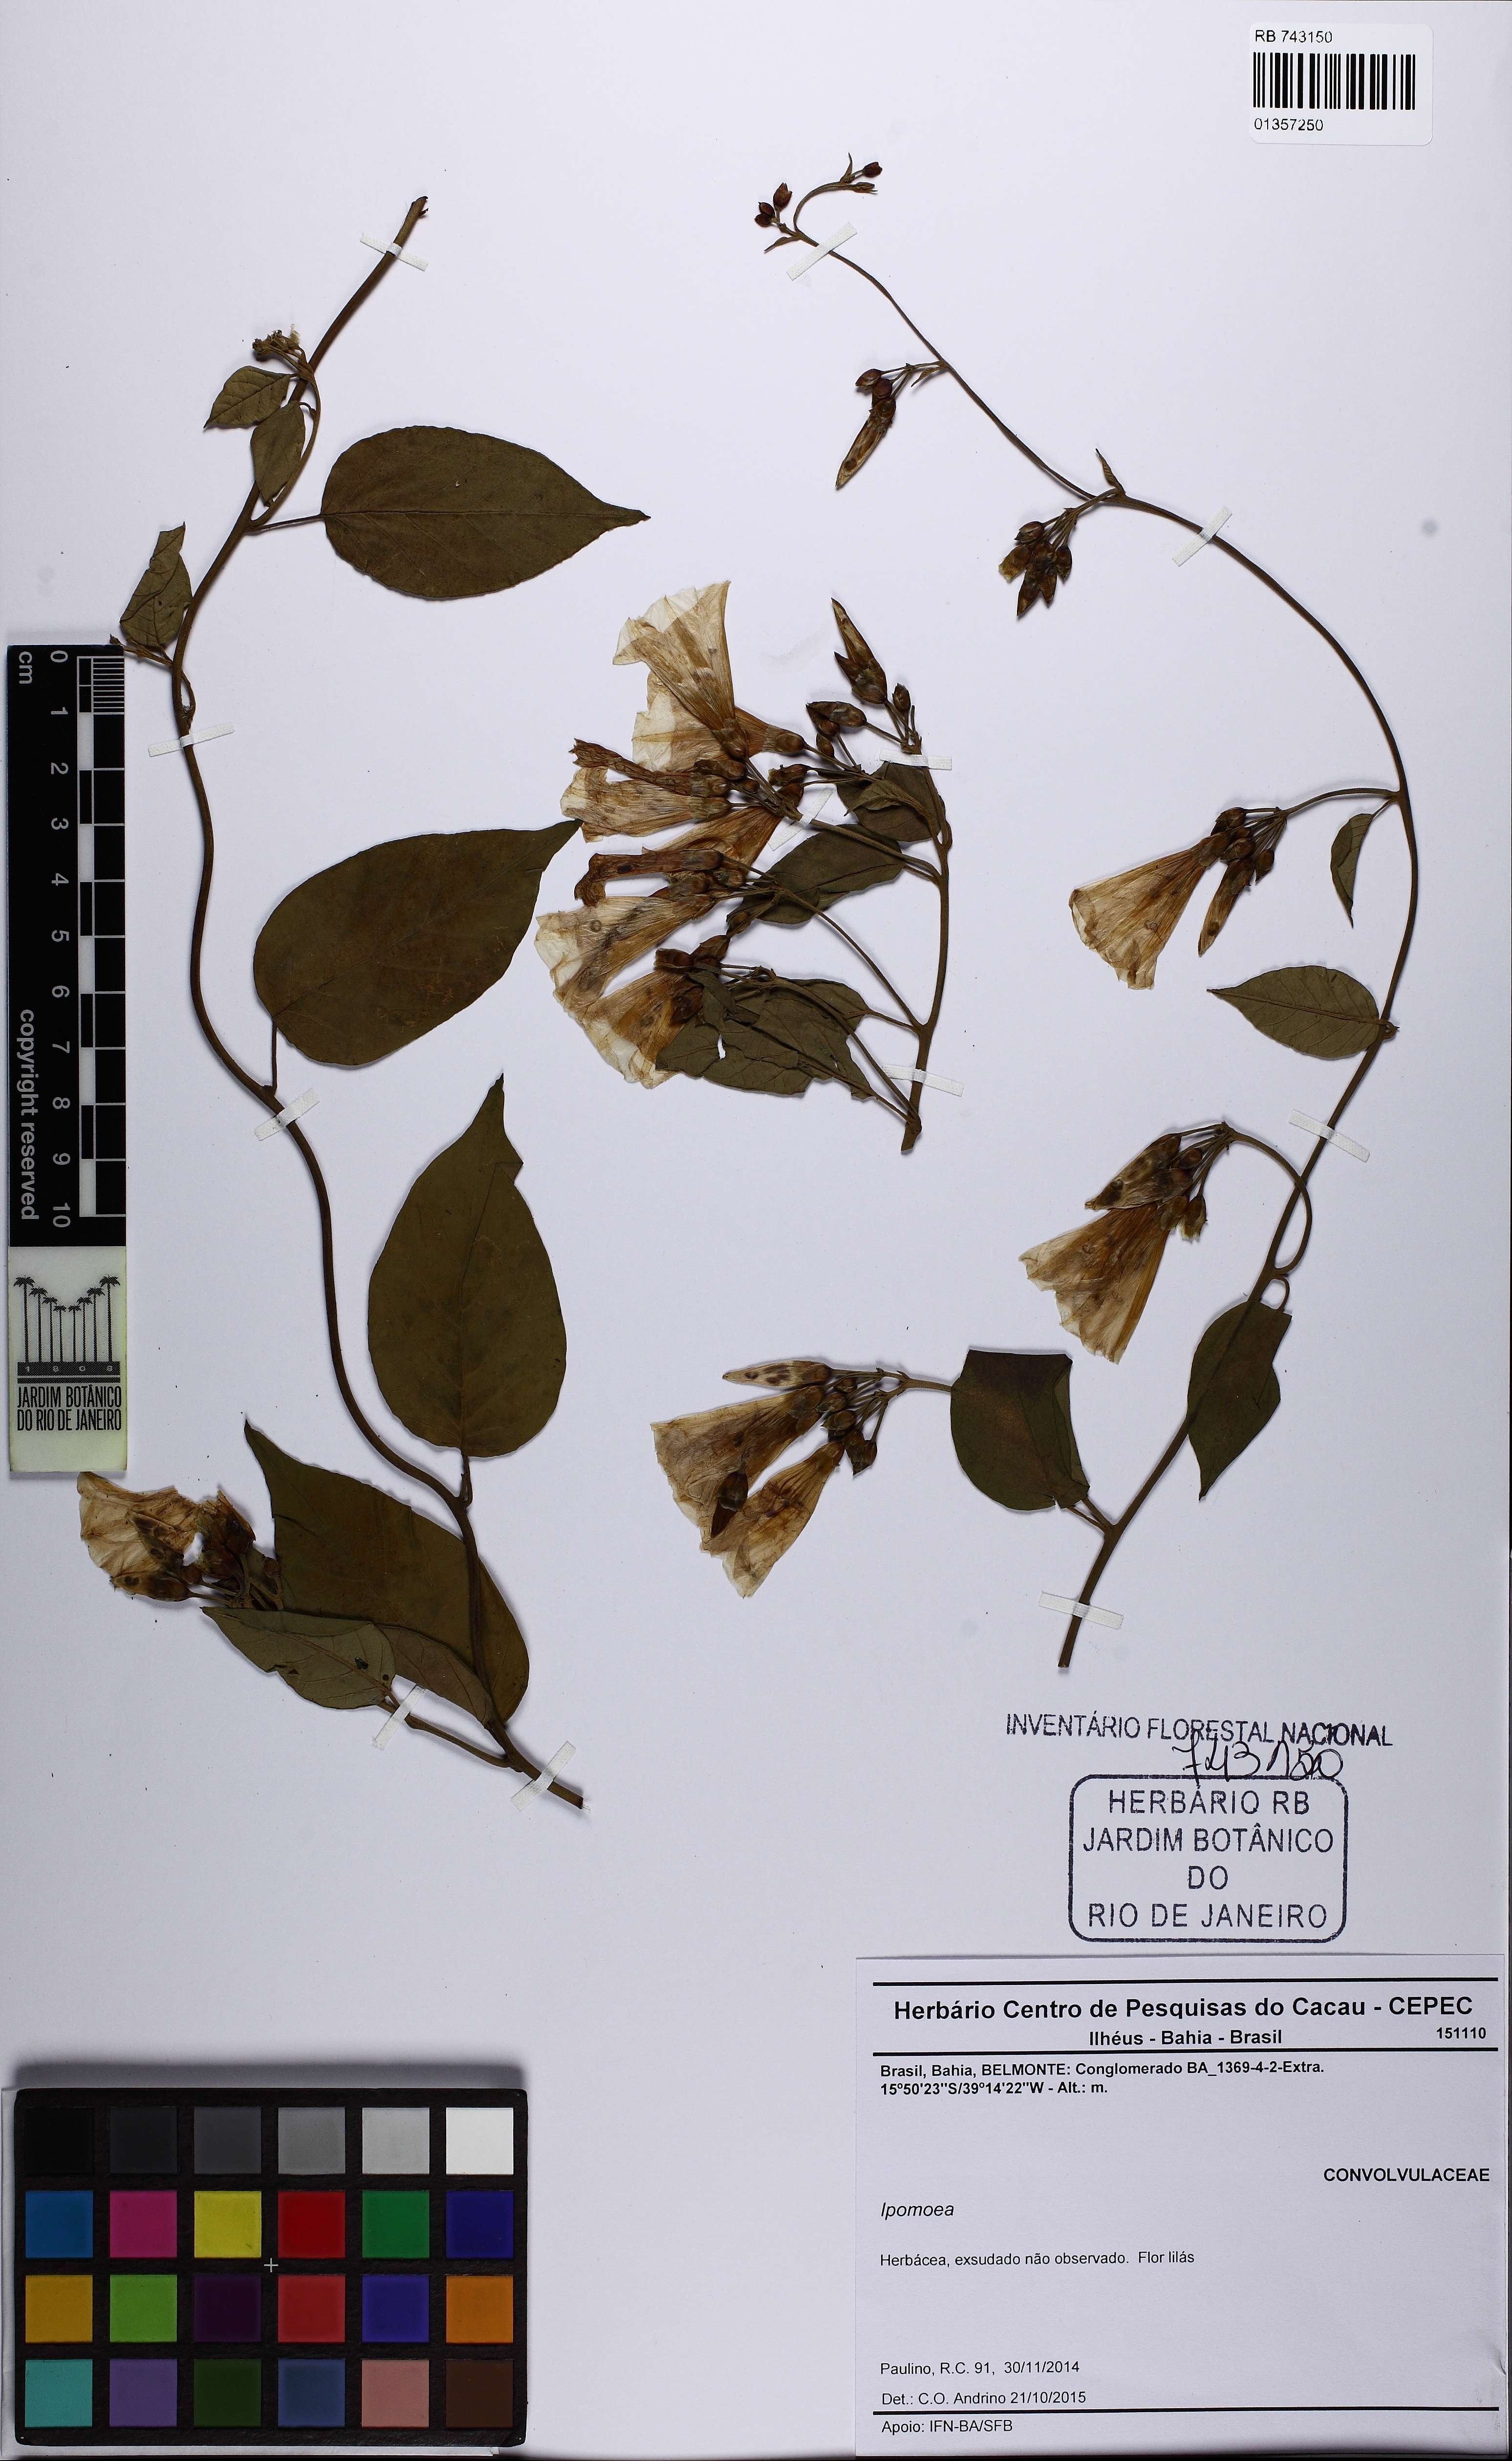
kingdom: Plantae
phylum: Tracheophyta
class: Magnoliopsida
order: Solanales
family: Convolvulaceae
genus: Ipomoea
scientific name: Ipomoea
